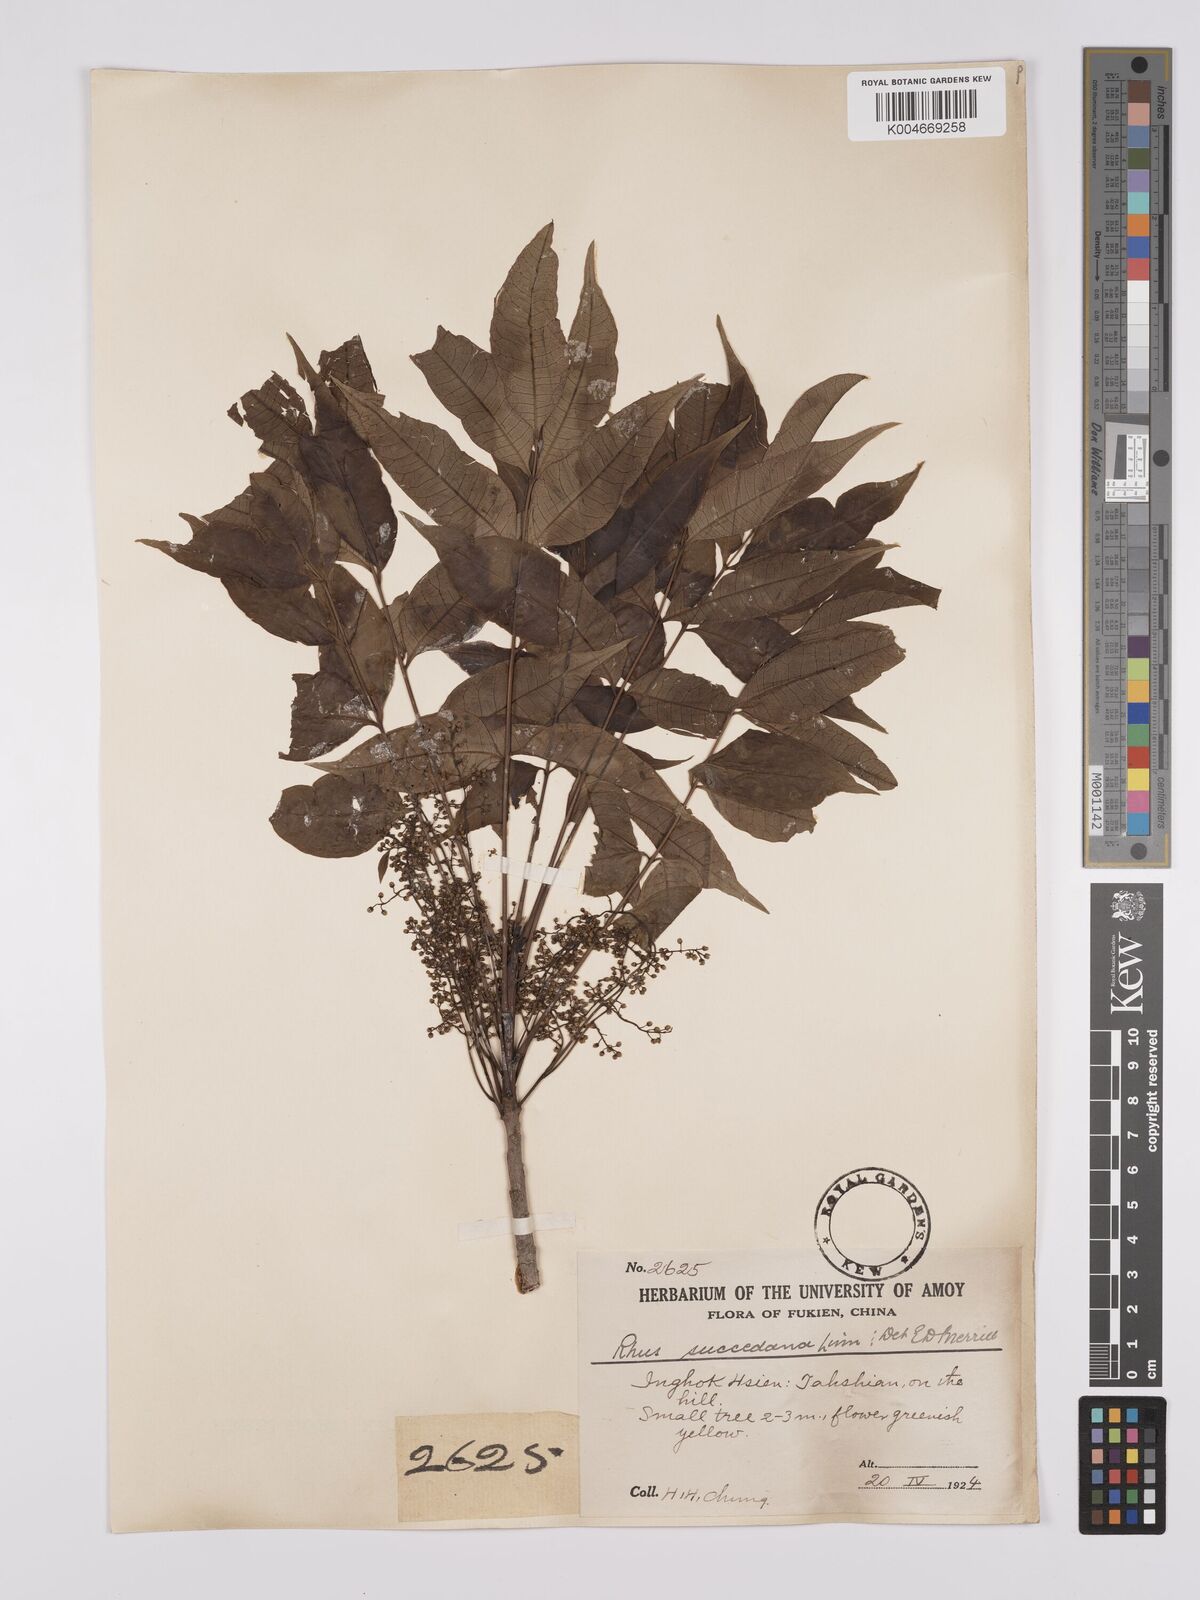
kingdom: Plantae
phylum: Tracheophyta
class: Magnoliopsida
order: Sapindales
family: Anacardiaceae
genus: Toxicodendron
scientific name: Toxicodendron succedaneum
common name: Wax tree
